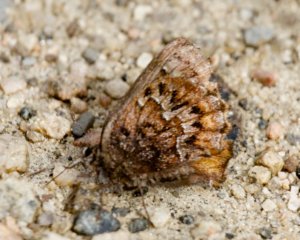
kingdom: Animalia
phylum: Arthropoda
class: Insecta
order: Lepidoptera
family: Lycaenidae
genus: Incisalia
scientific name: Incisalia niphon
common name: Eastern Pine Elfin
